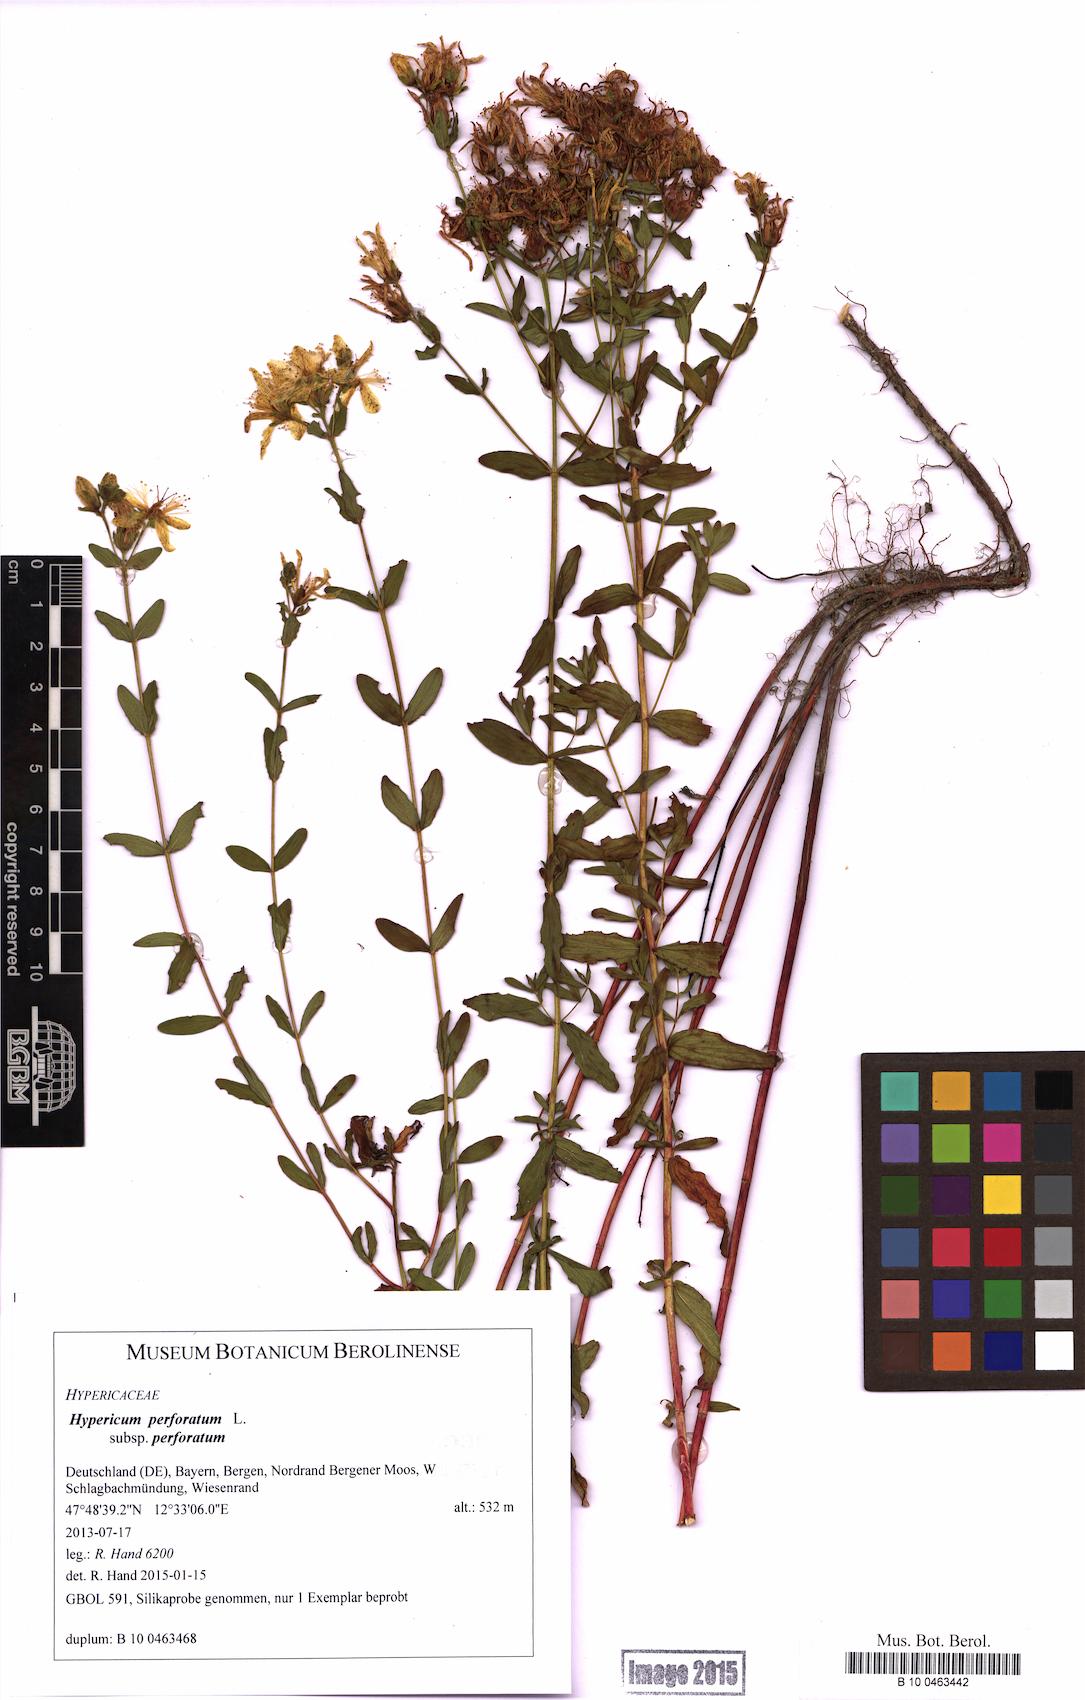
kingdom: Plantae
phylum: Tracheophyta
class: Magnoliopsida
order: Malpighiales
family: Hypericaceae
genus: Hypericum
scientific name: Hypericum perforatum
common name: Common st. johnswort
